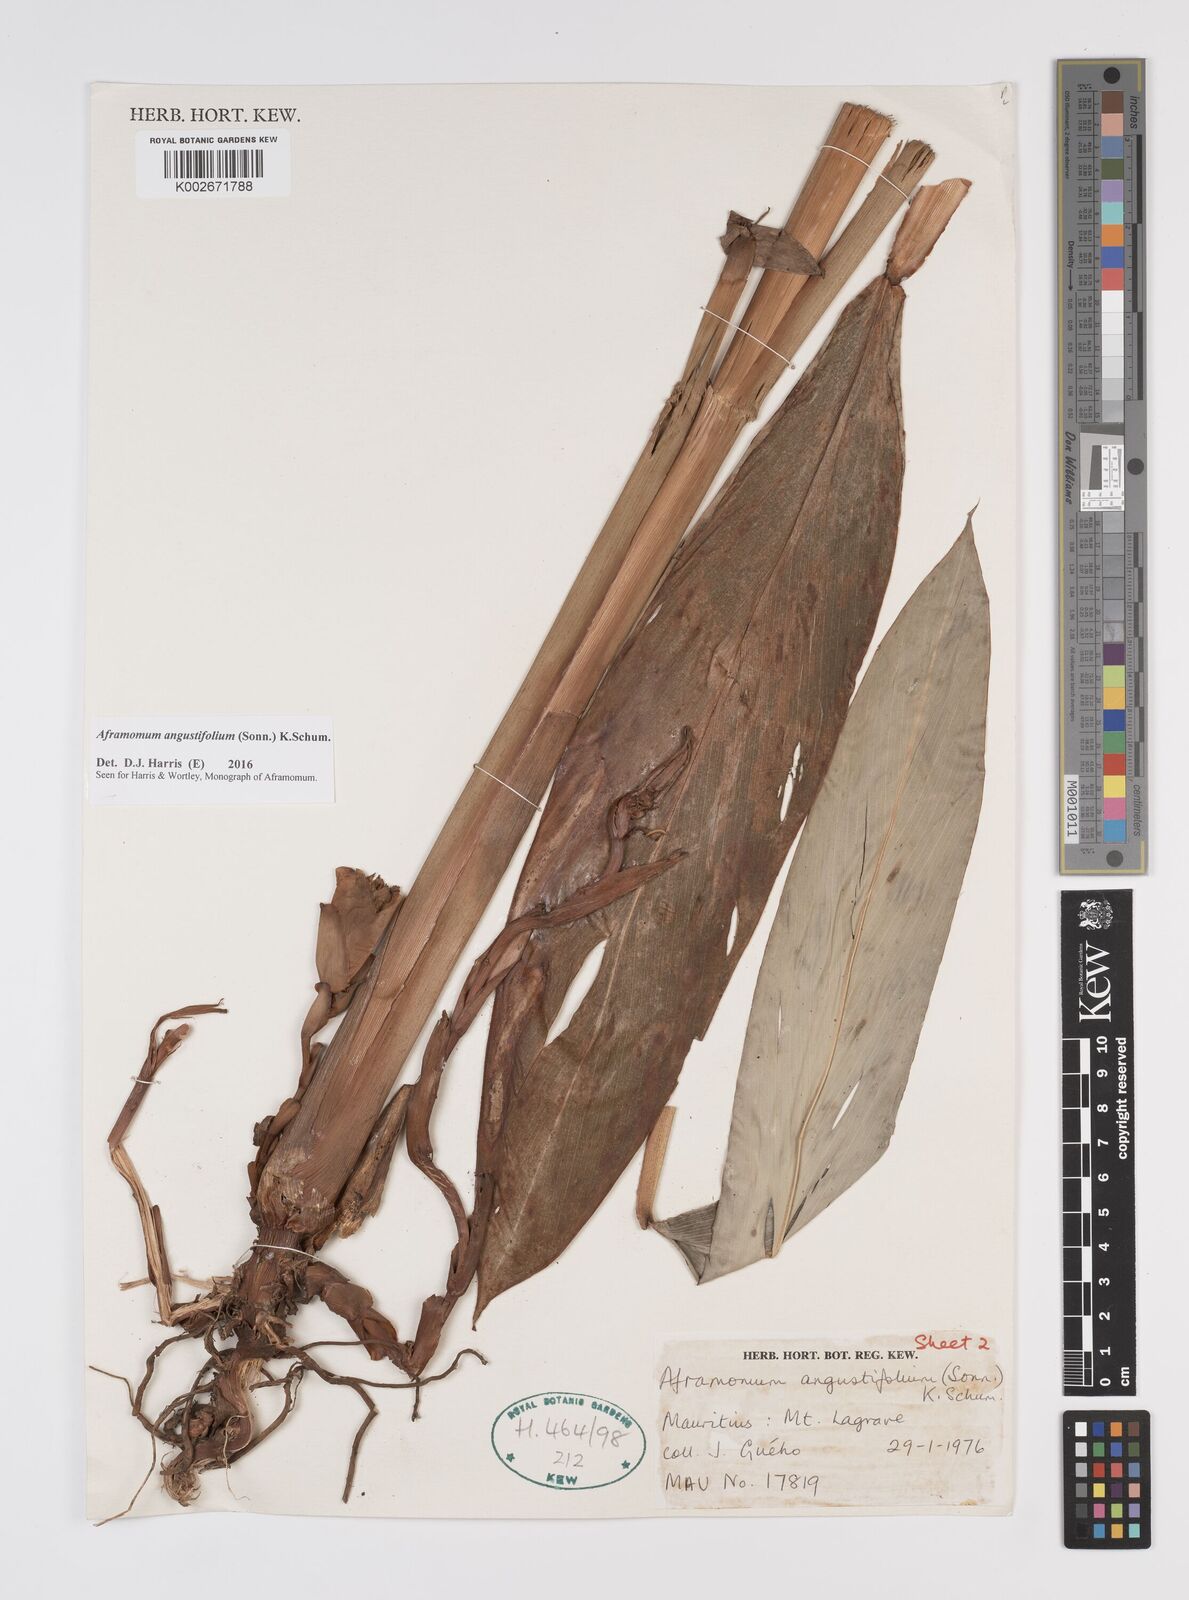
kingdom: Plantae
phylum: Tracheophyta
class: Liliopsida
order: Zingiberales
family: Zingiberaceae
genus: Aframomum
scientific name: Aframomum angustifolium
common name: Guinea grains
